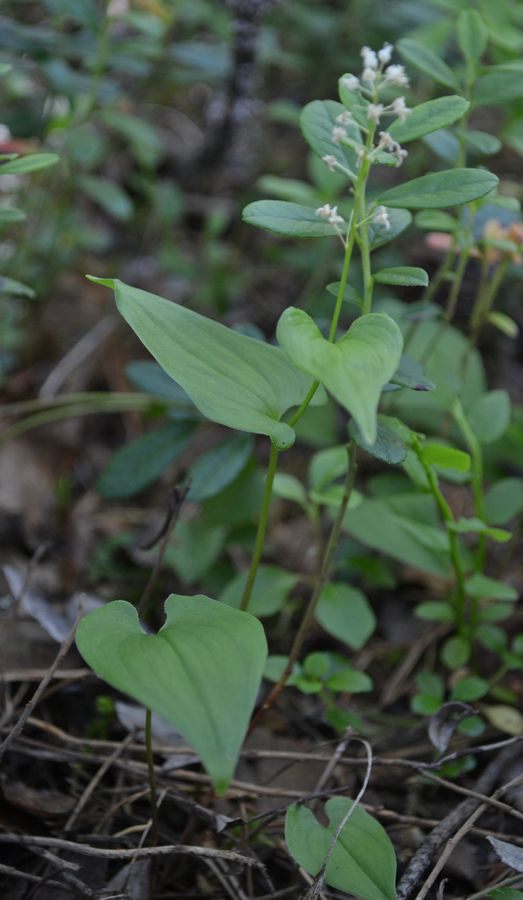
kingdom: Plantae
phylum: Tracheophyta
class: Liliopsida
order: Asparagales
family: Asparagaceae
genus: Maianthemum
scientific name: Maianthemum bifolium
